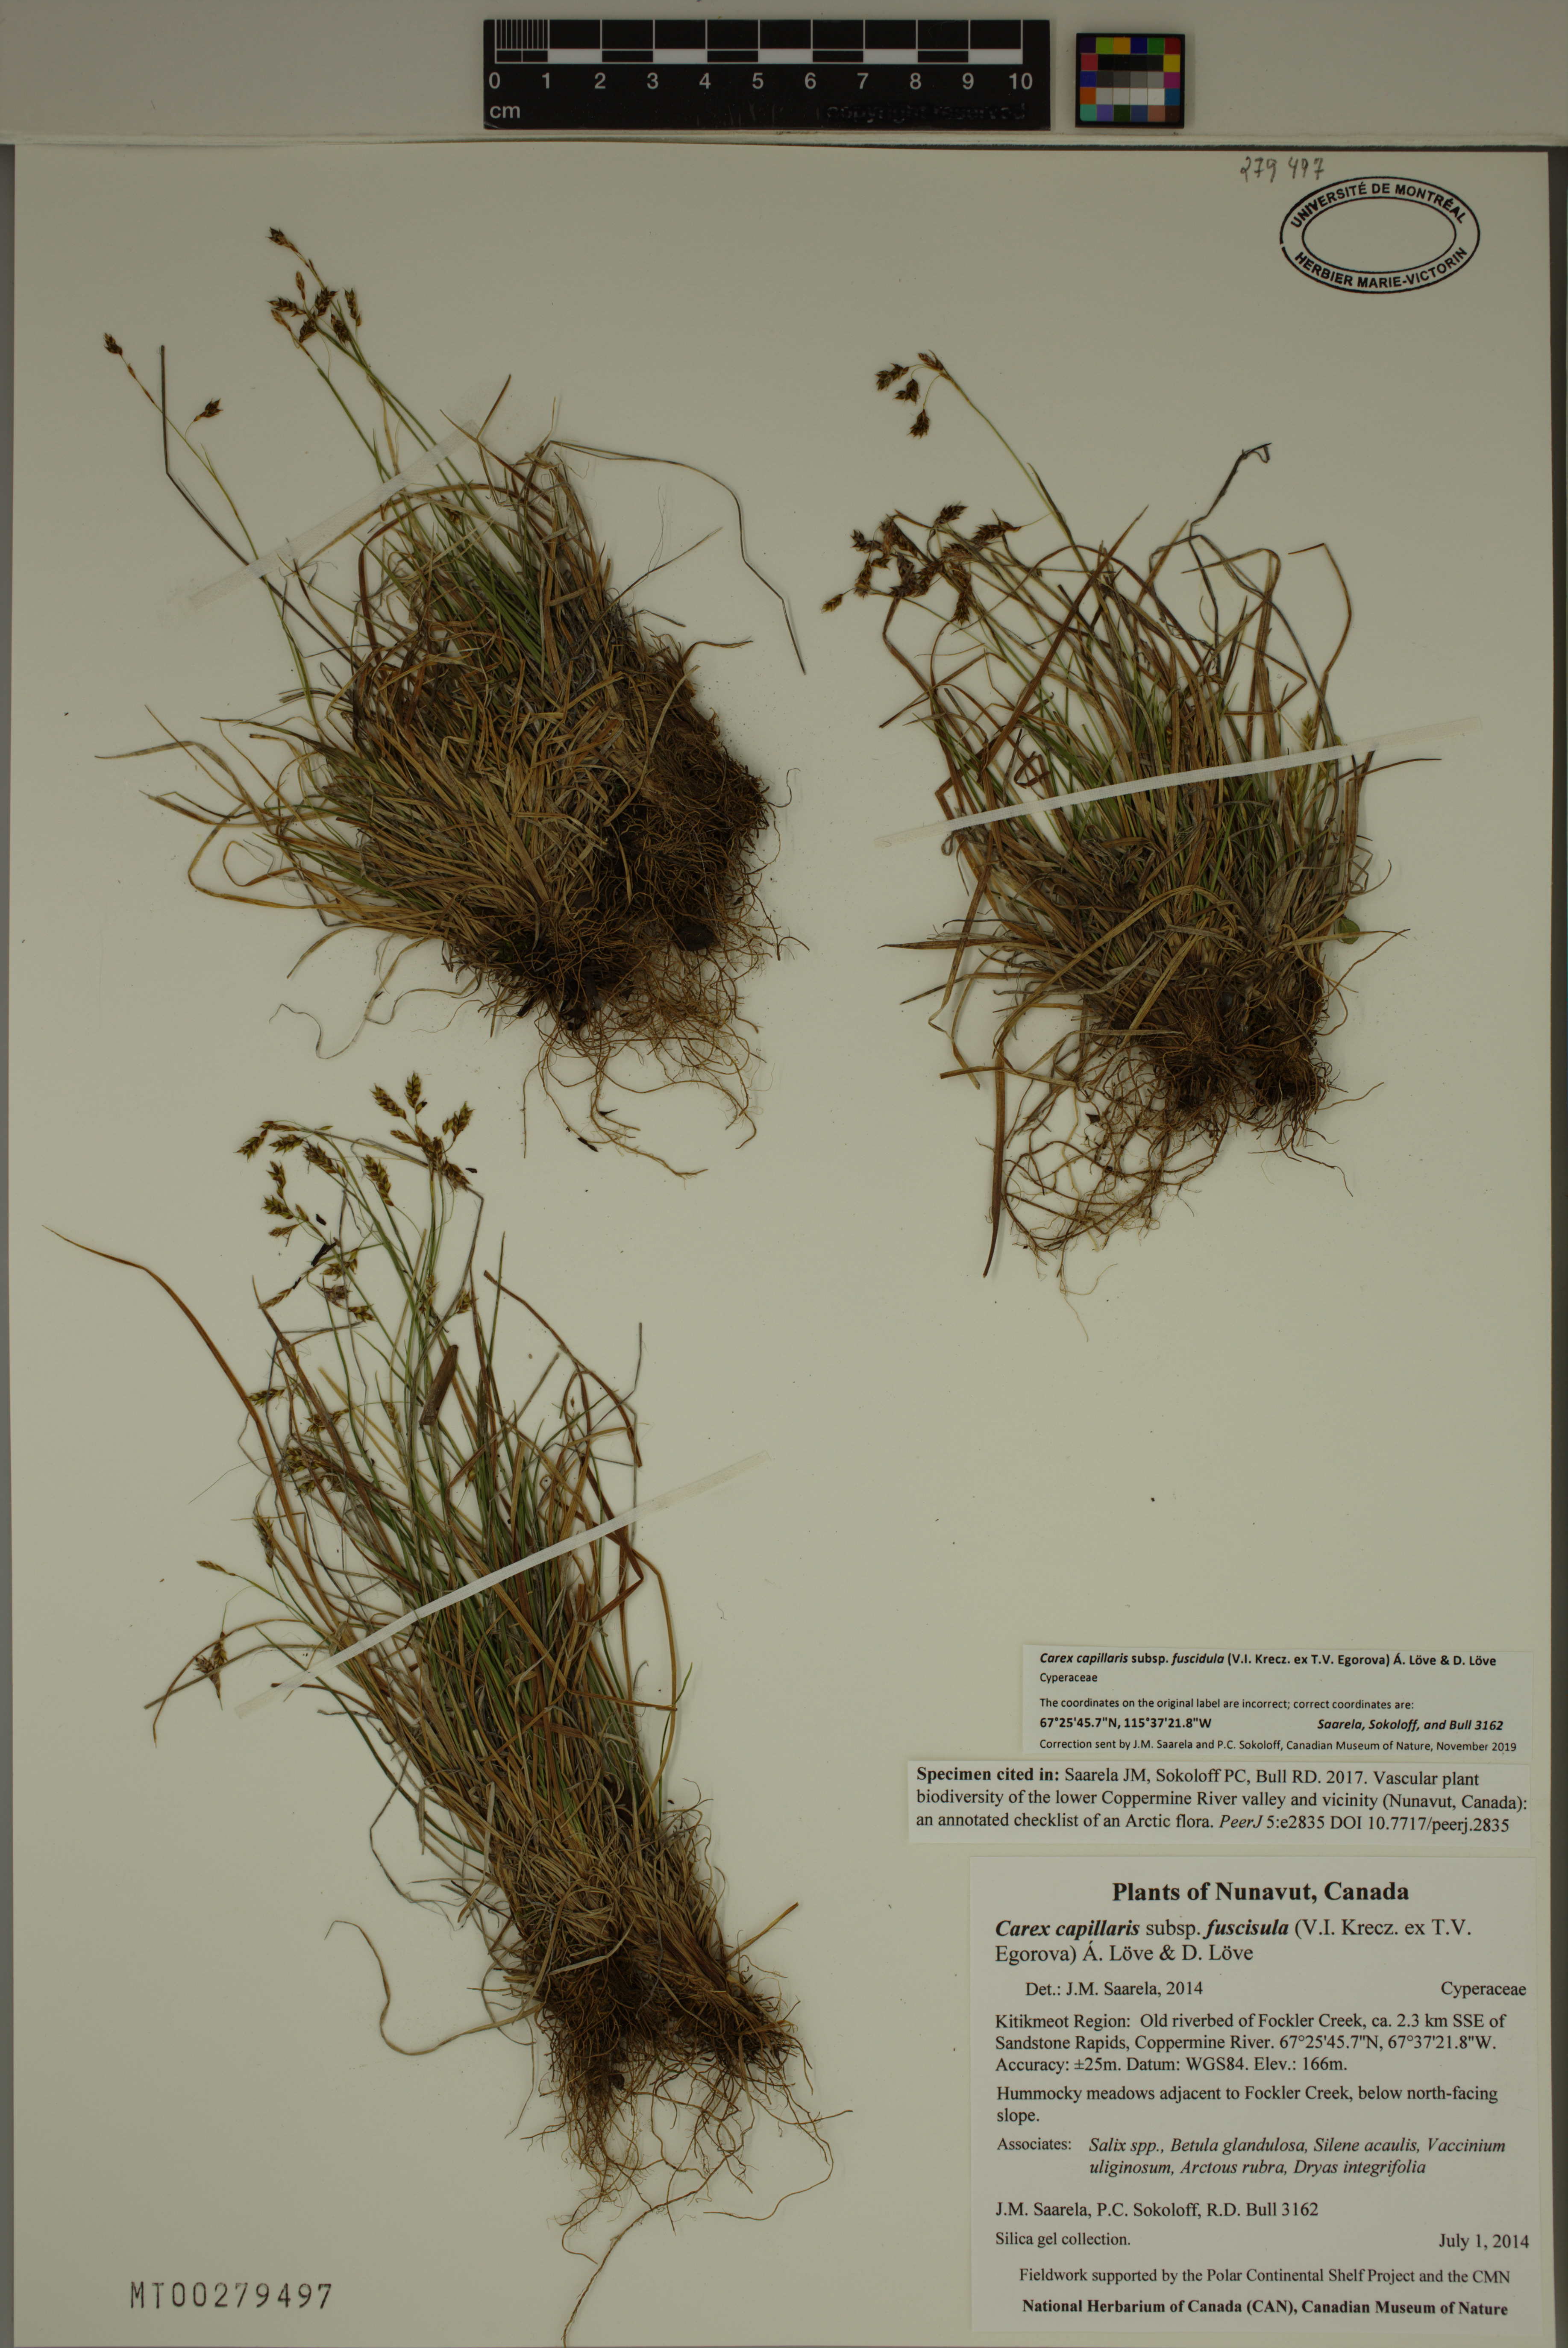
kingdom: Plantae
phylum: Tracheophyta
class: Liliopsida
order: Poales
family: Cyperaceae
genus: Carex
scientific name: Carex capillaris
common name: Hair sedge
